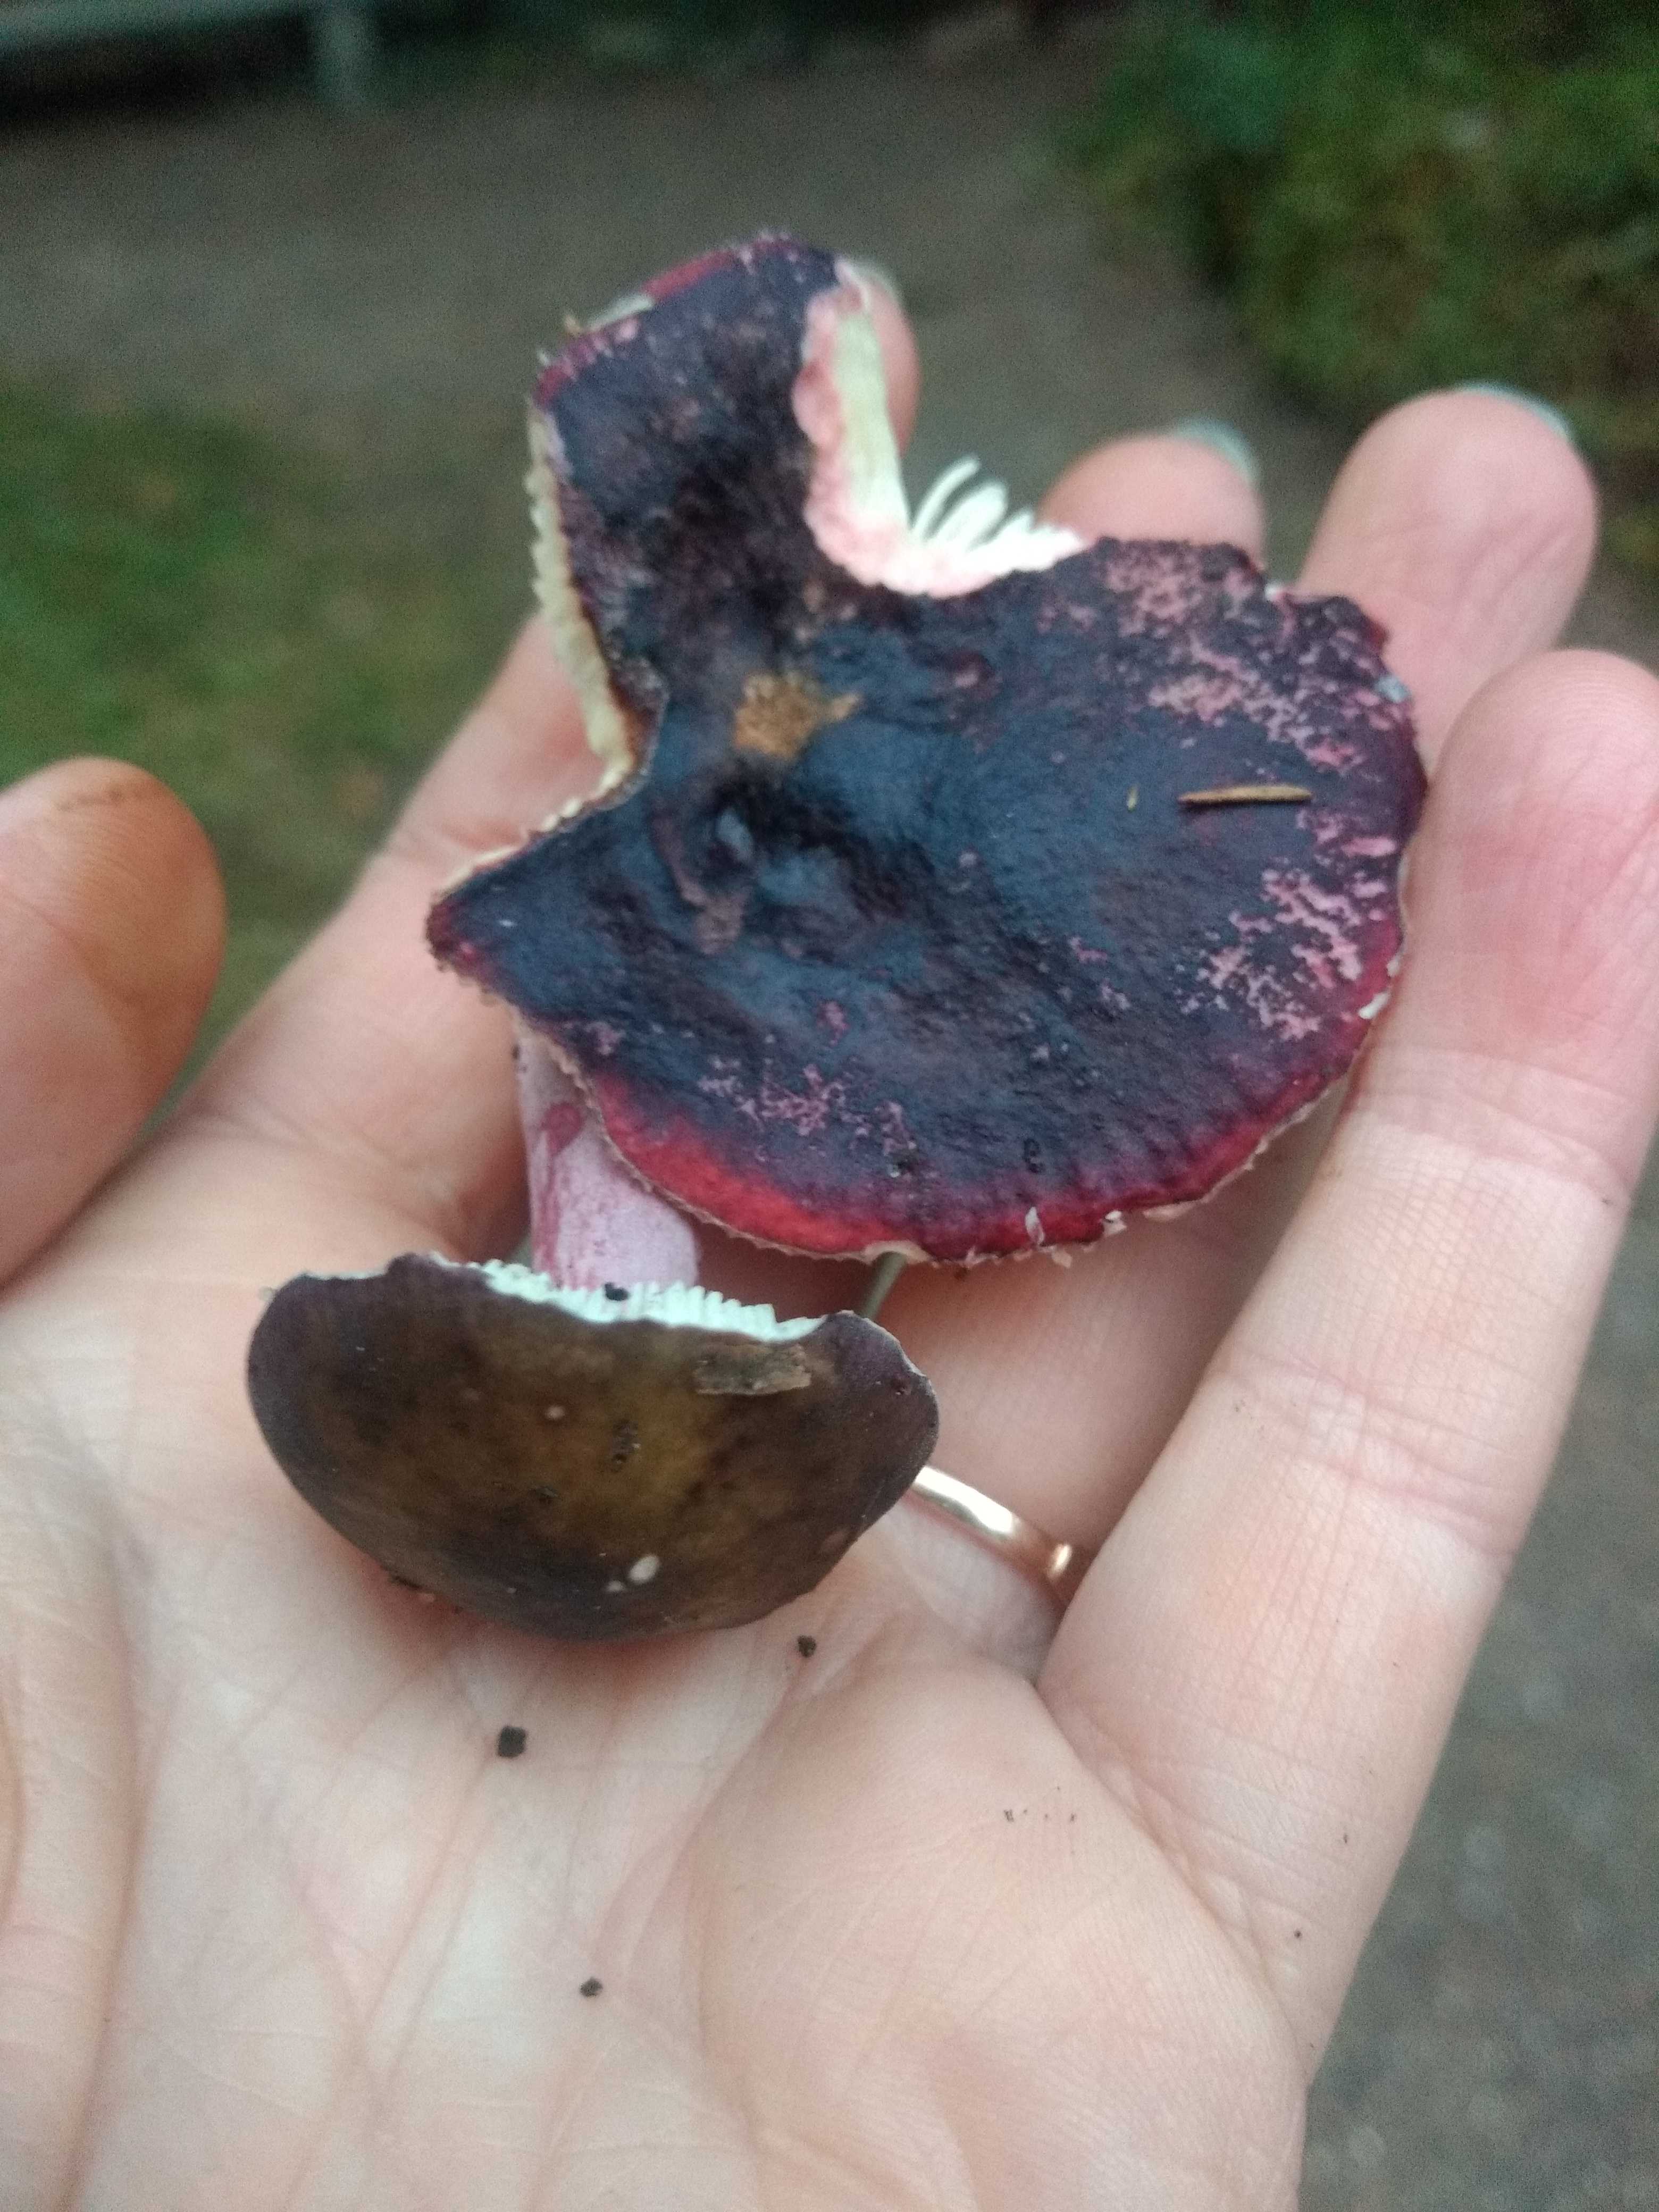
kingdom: Fungi
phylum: Basidiomycota
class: Agaricomycetes
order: Russulales
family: Russulaceae
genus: Russula
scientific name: Russula queletii
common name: Quélets skørhat
